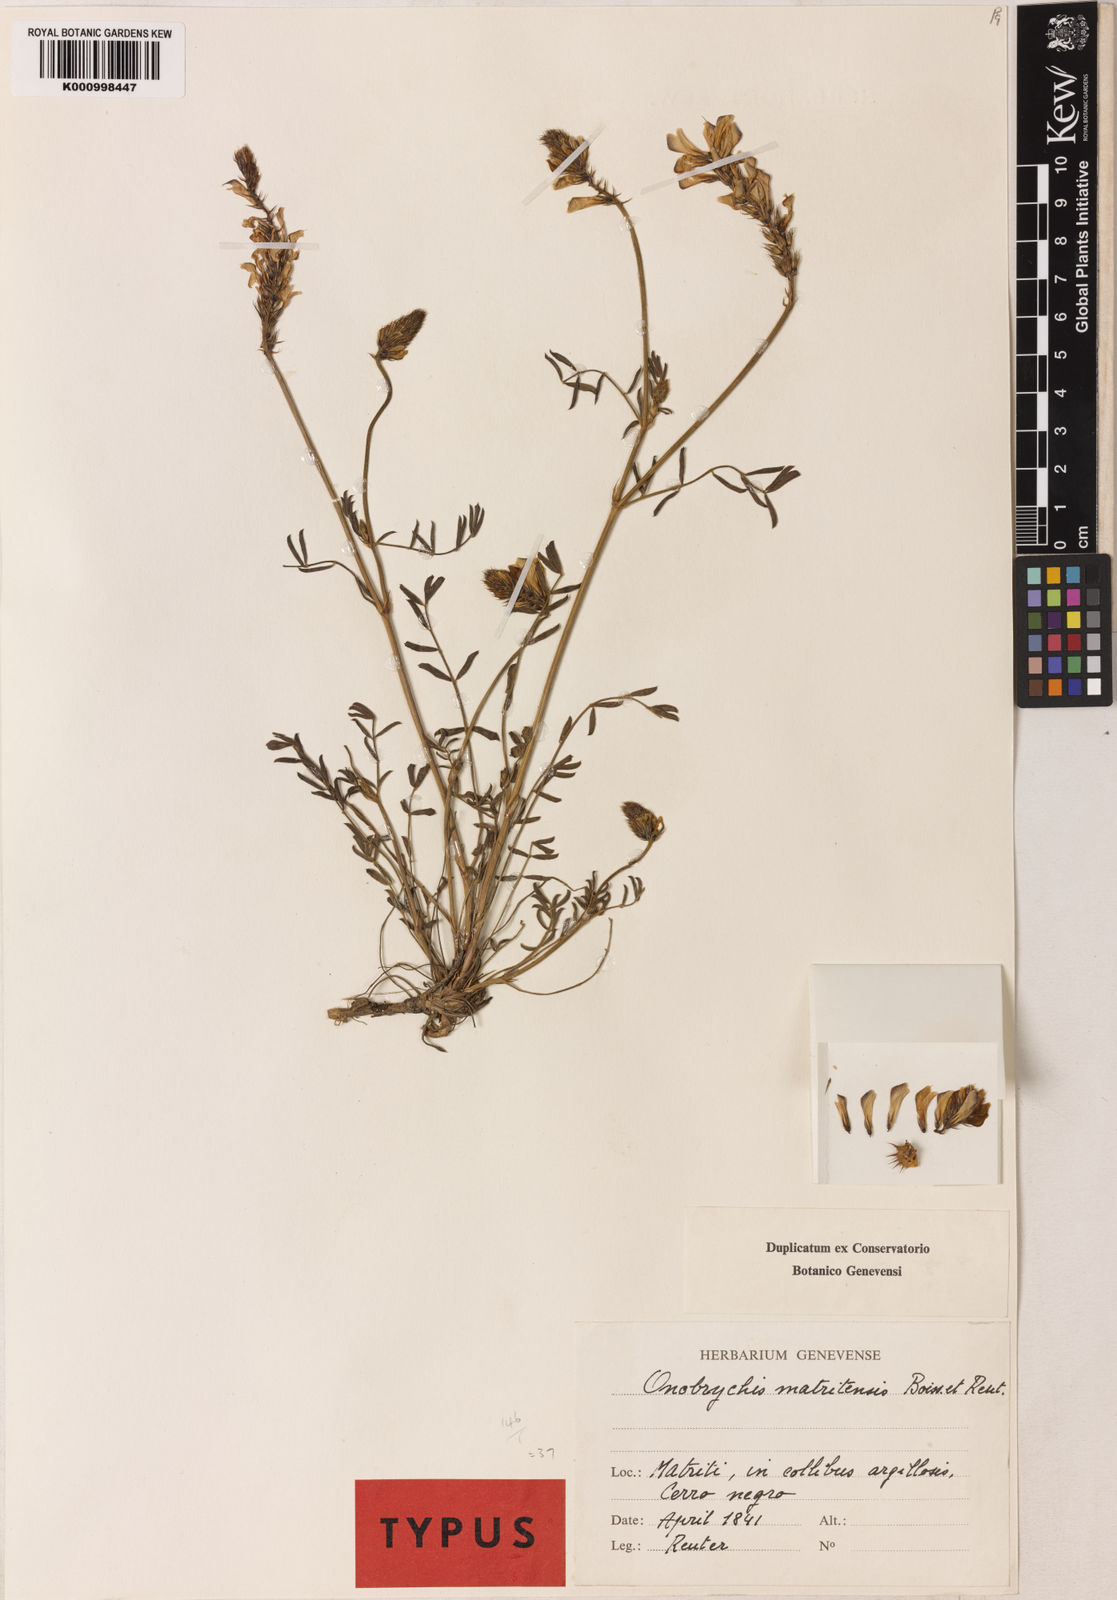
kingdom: Plantae
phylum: Tracheophyta
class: Magnoliopsida
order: Fabales
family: Fabaceae
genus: Onobrychis
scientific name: Onobrychis humilis
